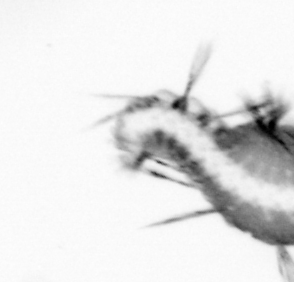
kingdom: Animalia
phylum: Annelida
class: Polychaeta
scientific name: Polychaeta
